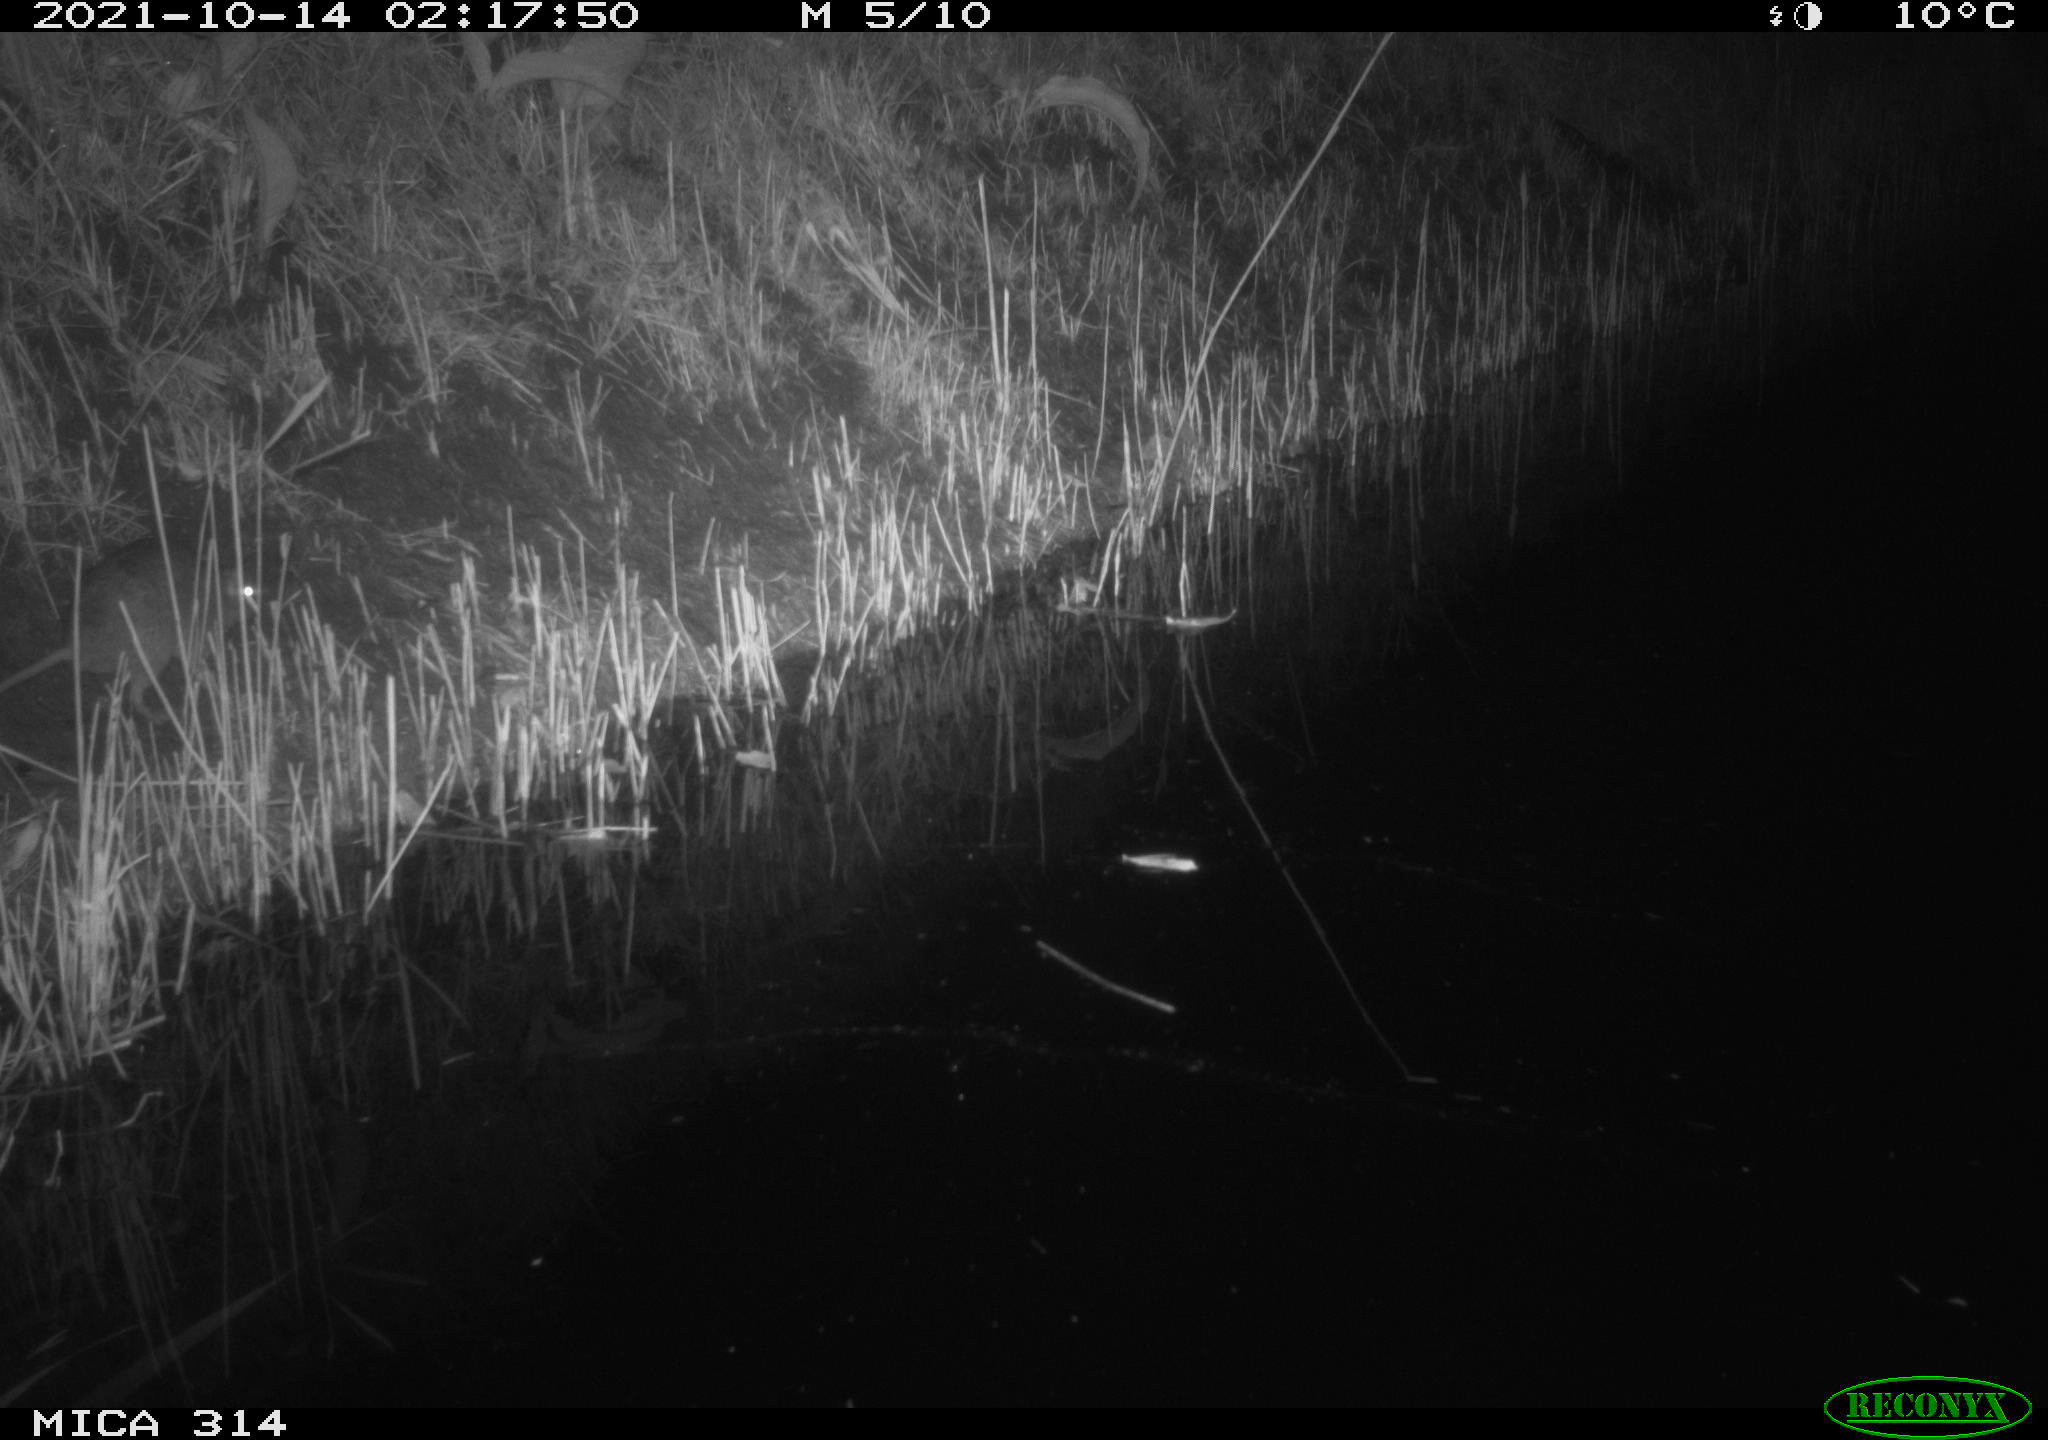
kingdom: Animalia
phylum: Chordata
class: Mammalia
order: Rodentia
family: Muridae
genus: Rattus
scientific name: Rattus norvegicus
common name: Brown rat
